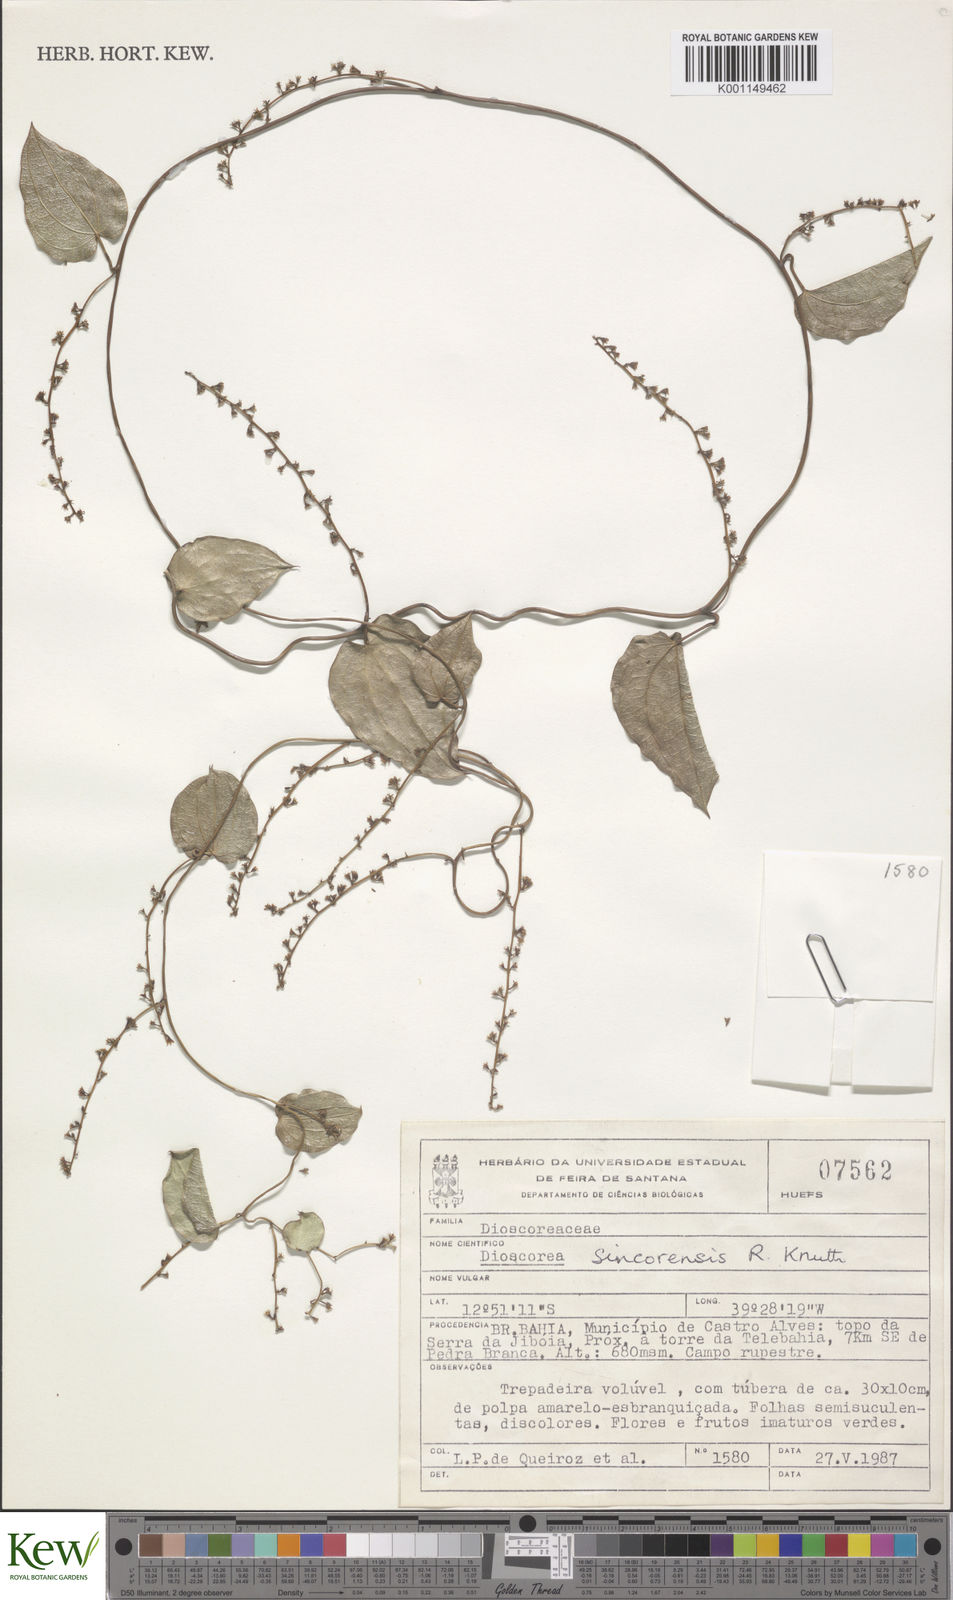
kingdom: Plantae
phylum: Tracheophyta
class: Liliopsida
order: Dioscoreales
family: Dioscoreaceae
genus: Dioscorea
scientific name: Dioscorea sincorensis
